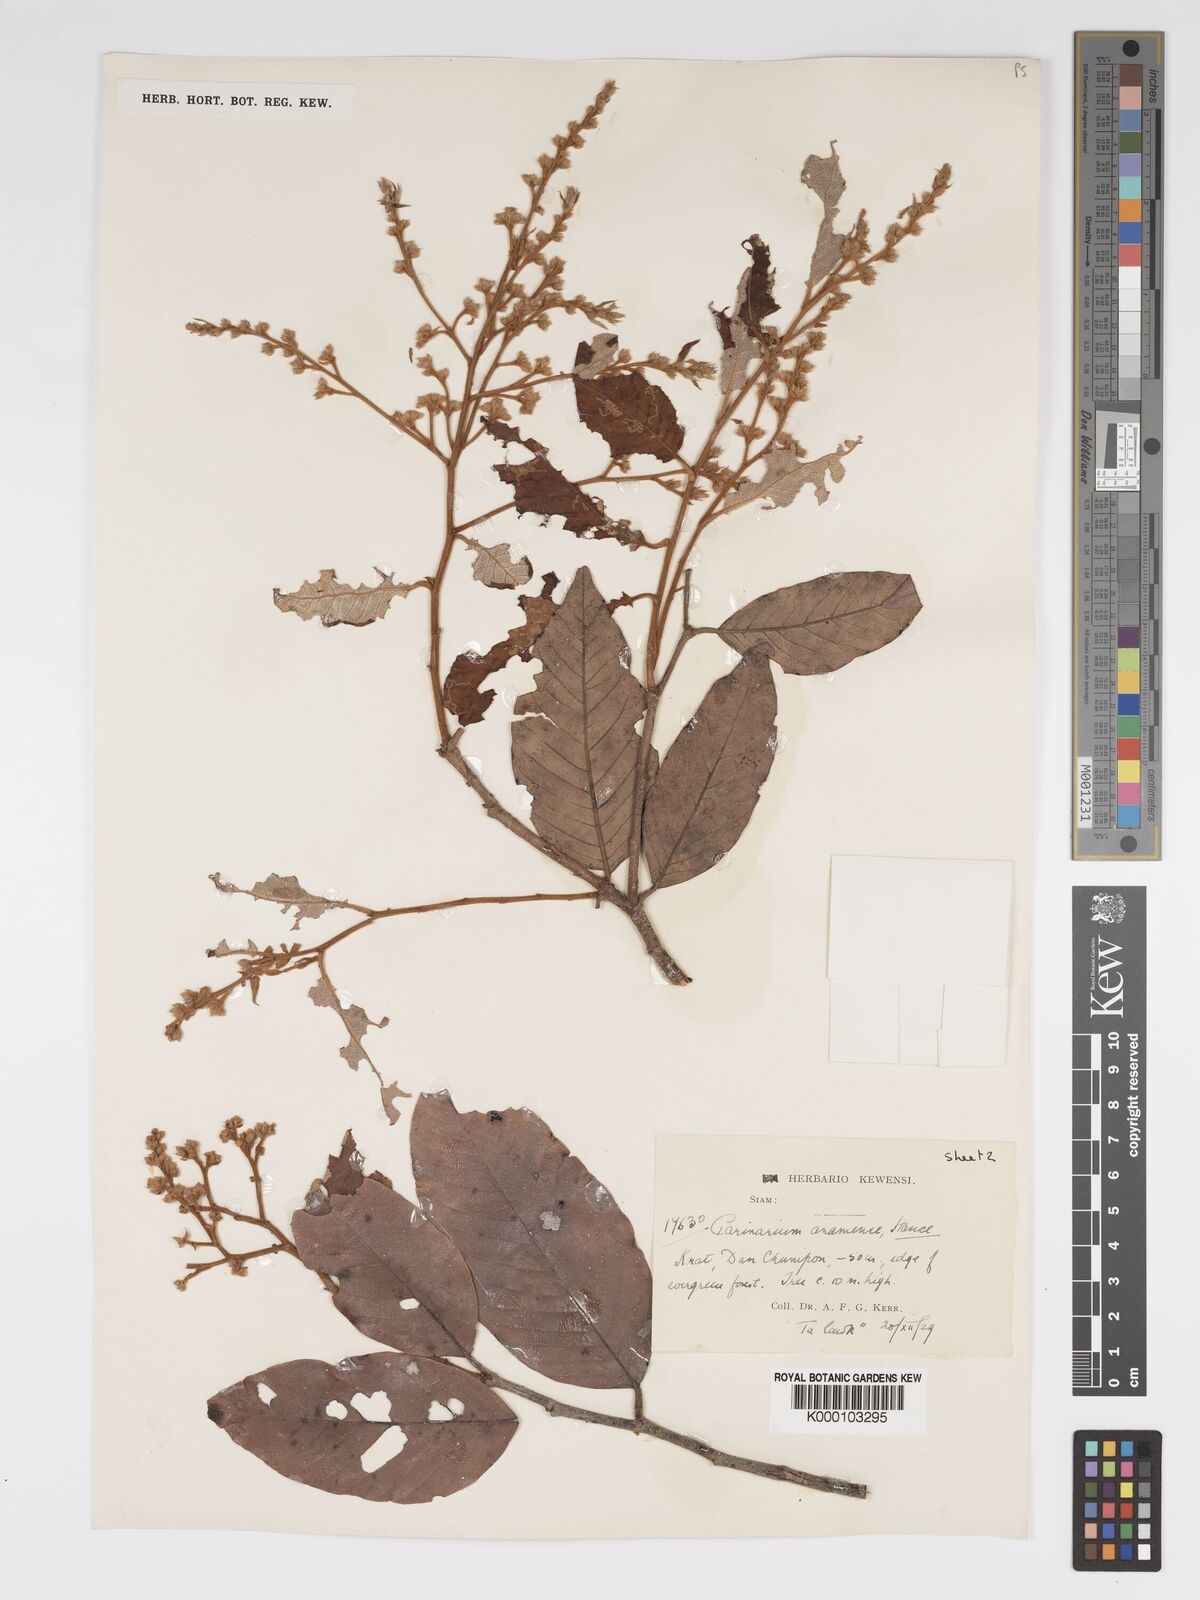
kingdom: Plantae
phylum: Tracheophyta
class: Magnoliopsida
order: Malpighiales
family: Chrysobalanaceae
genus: Parinari
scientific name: Parinari anamensis
